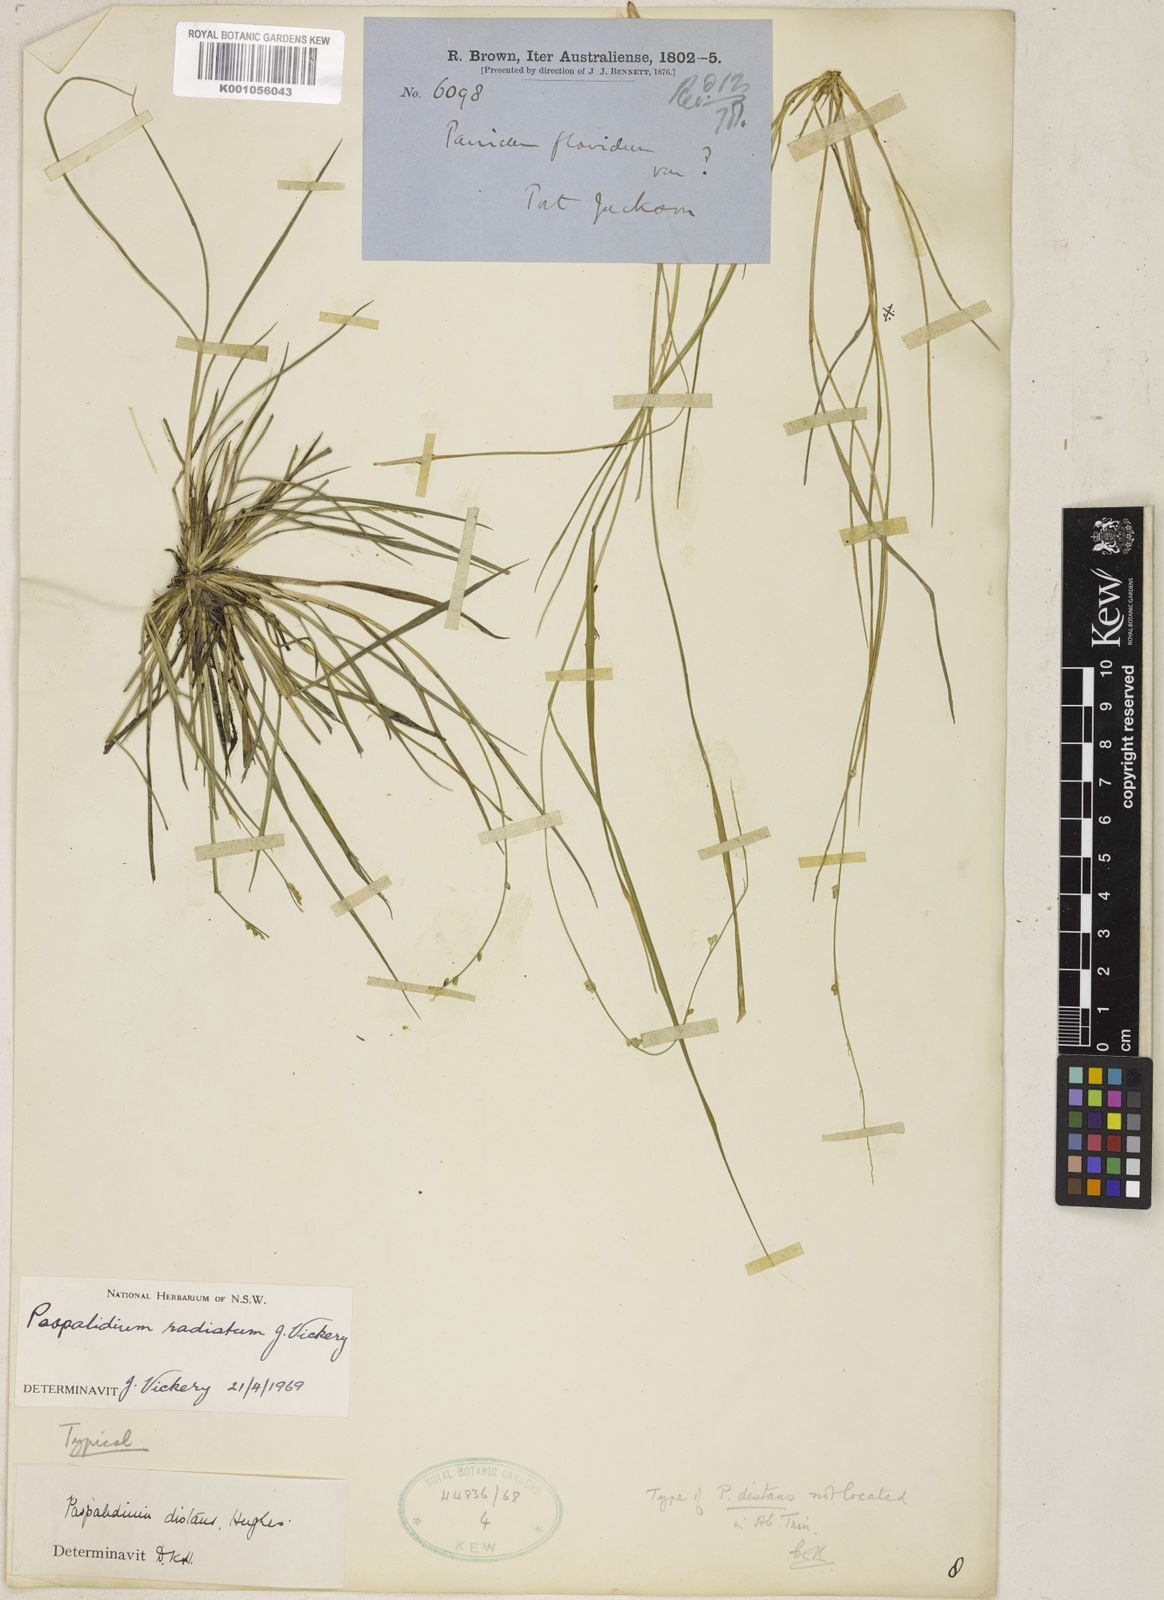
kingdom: Plantae
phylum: Tracheophyta
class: Liliopsida
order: Poales
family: Poaceae
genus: Setaria
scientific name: Setaria distans
